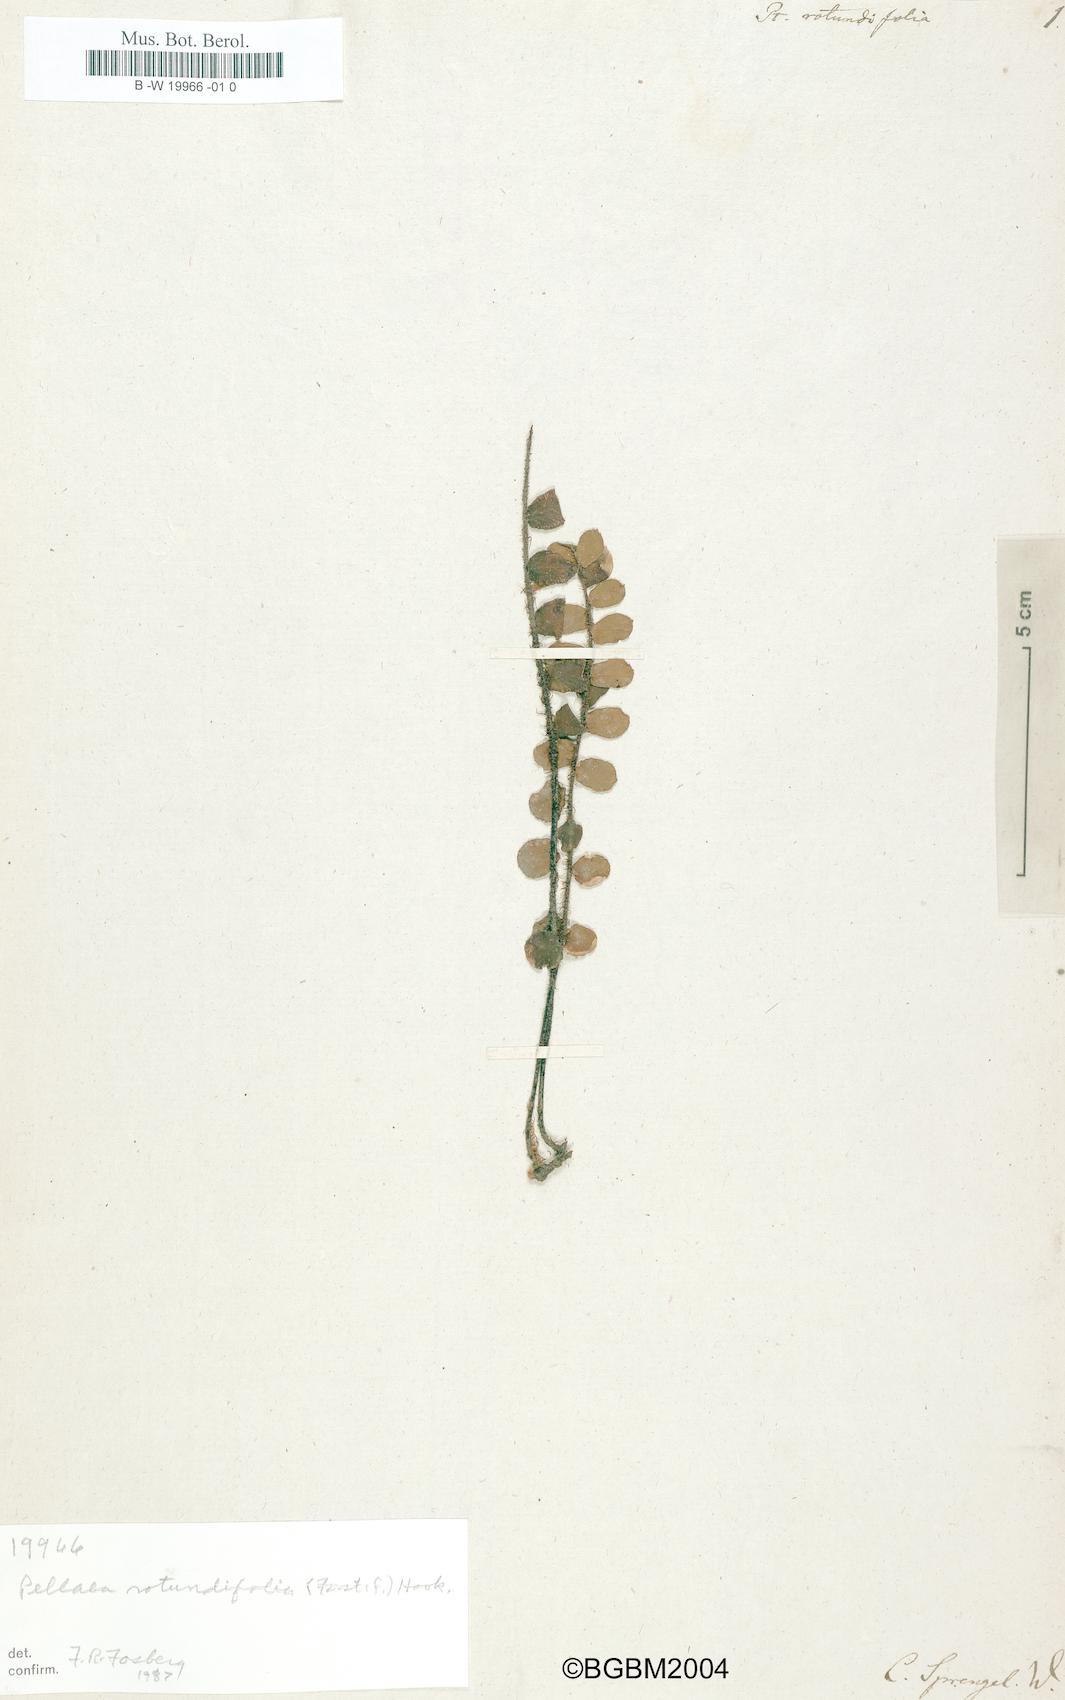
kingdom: Plantae
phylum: Tracheophyta
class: Polypodiopsida
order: Polypodiales
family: Pteridaceae
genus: Pellaea
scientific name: Pellaea rotundifolia
